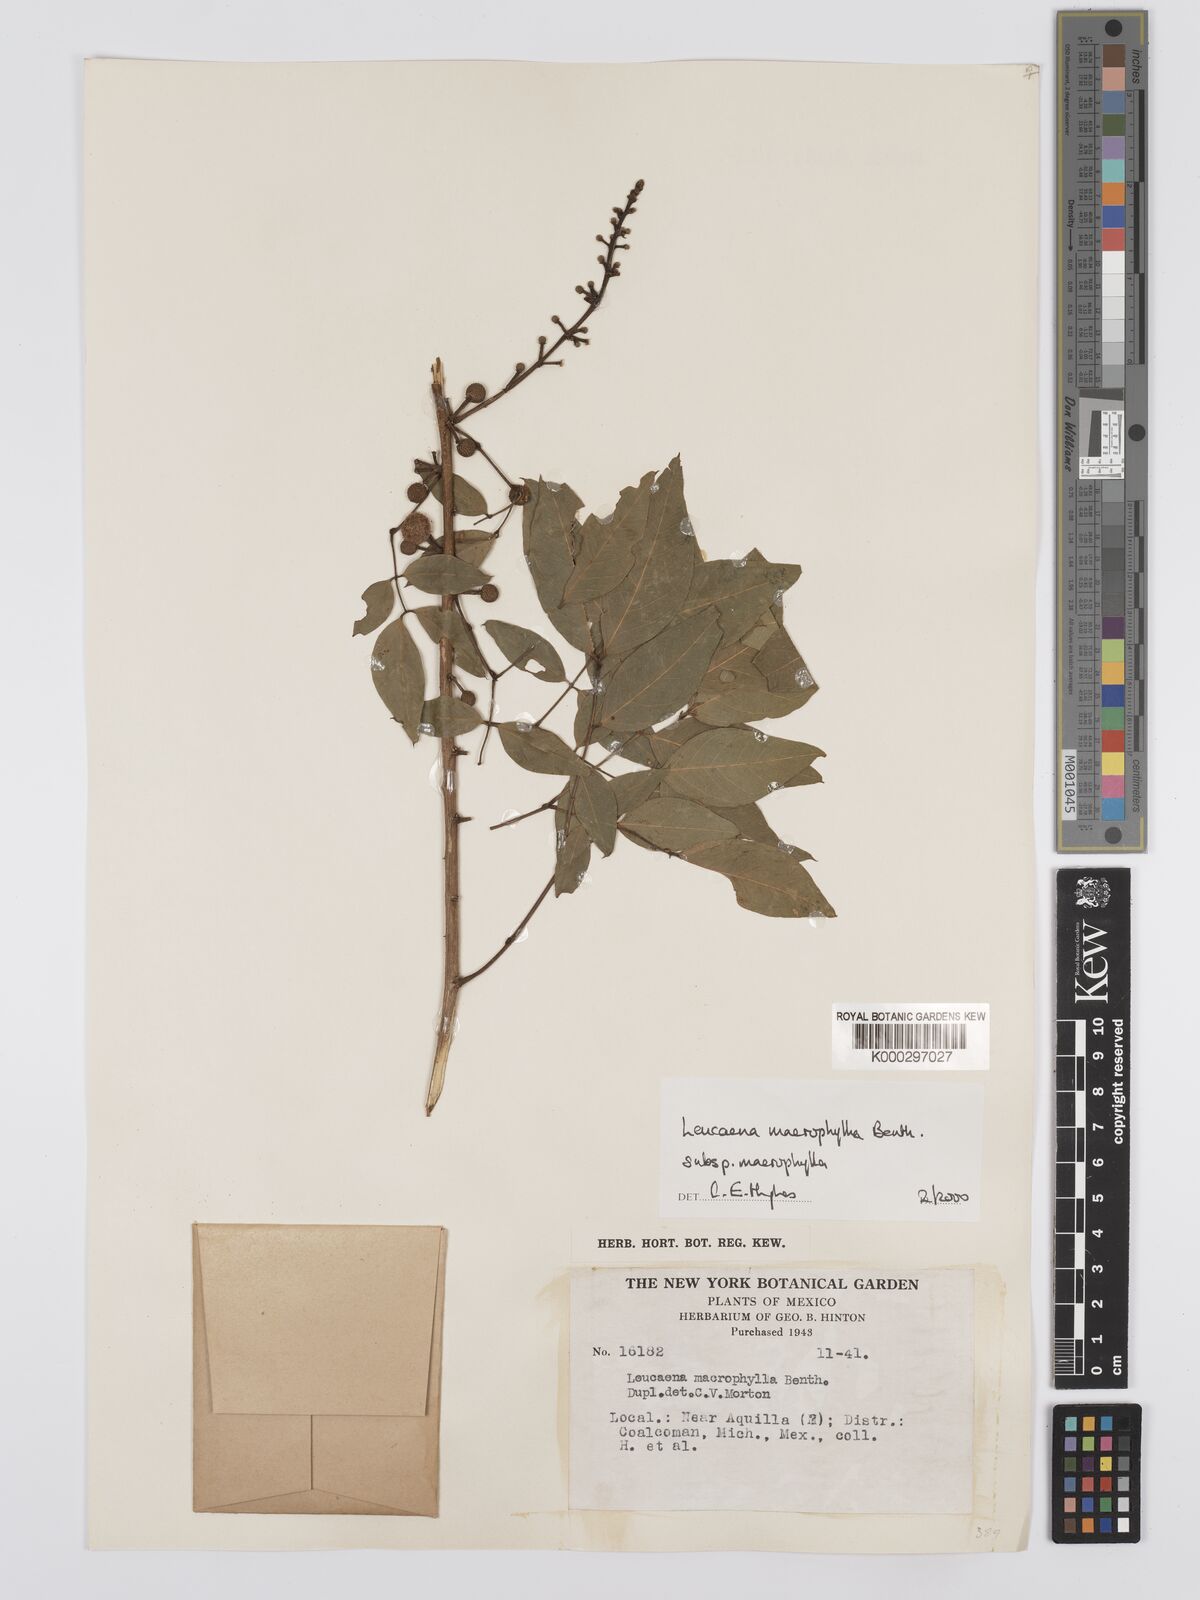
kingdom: Plantae
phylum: Tracheophyta
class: Magnoliopsida
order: Fabales
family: Fabaceae
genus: Leucaena
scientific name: Leucaena macrophylla
